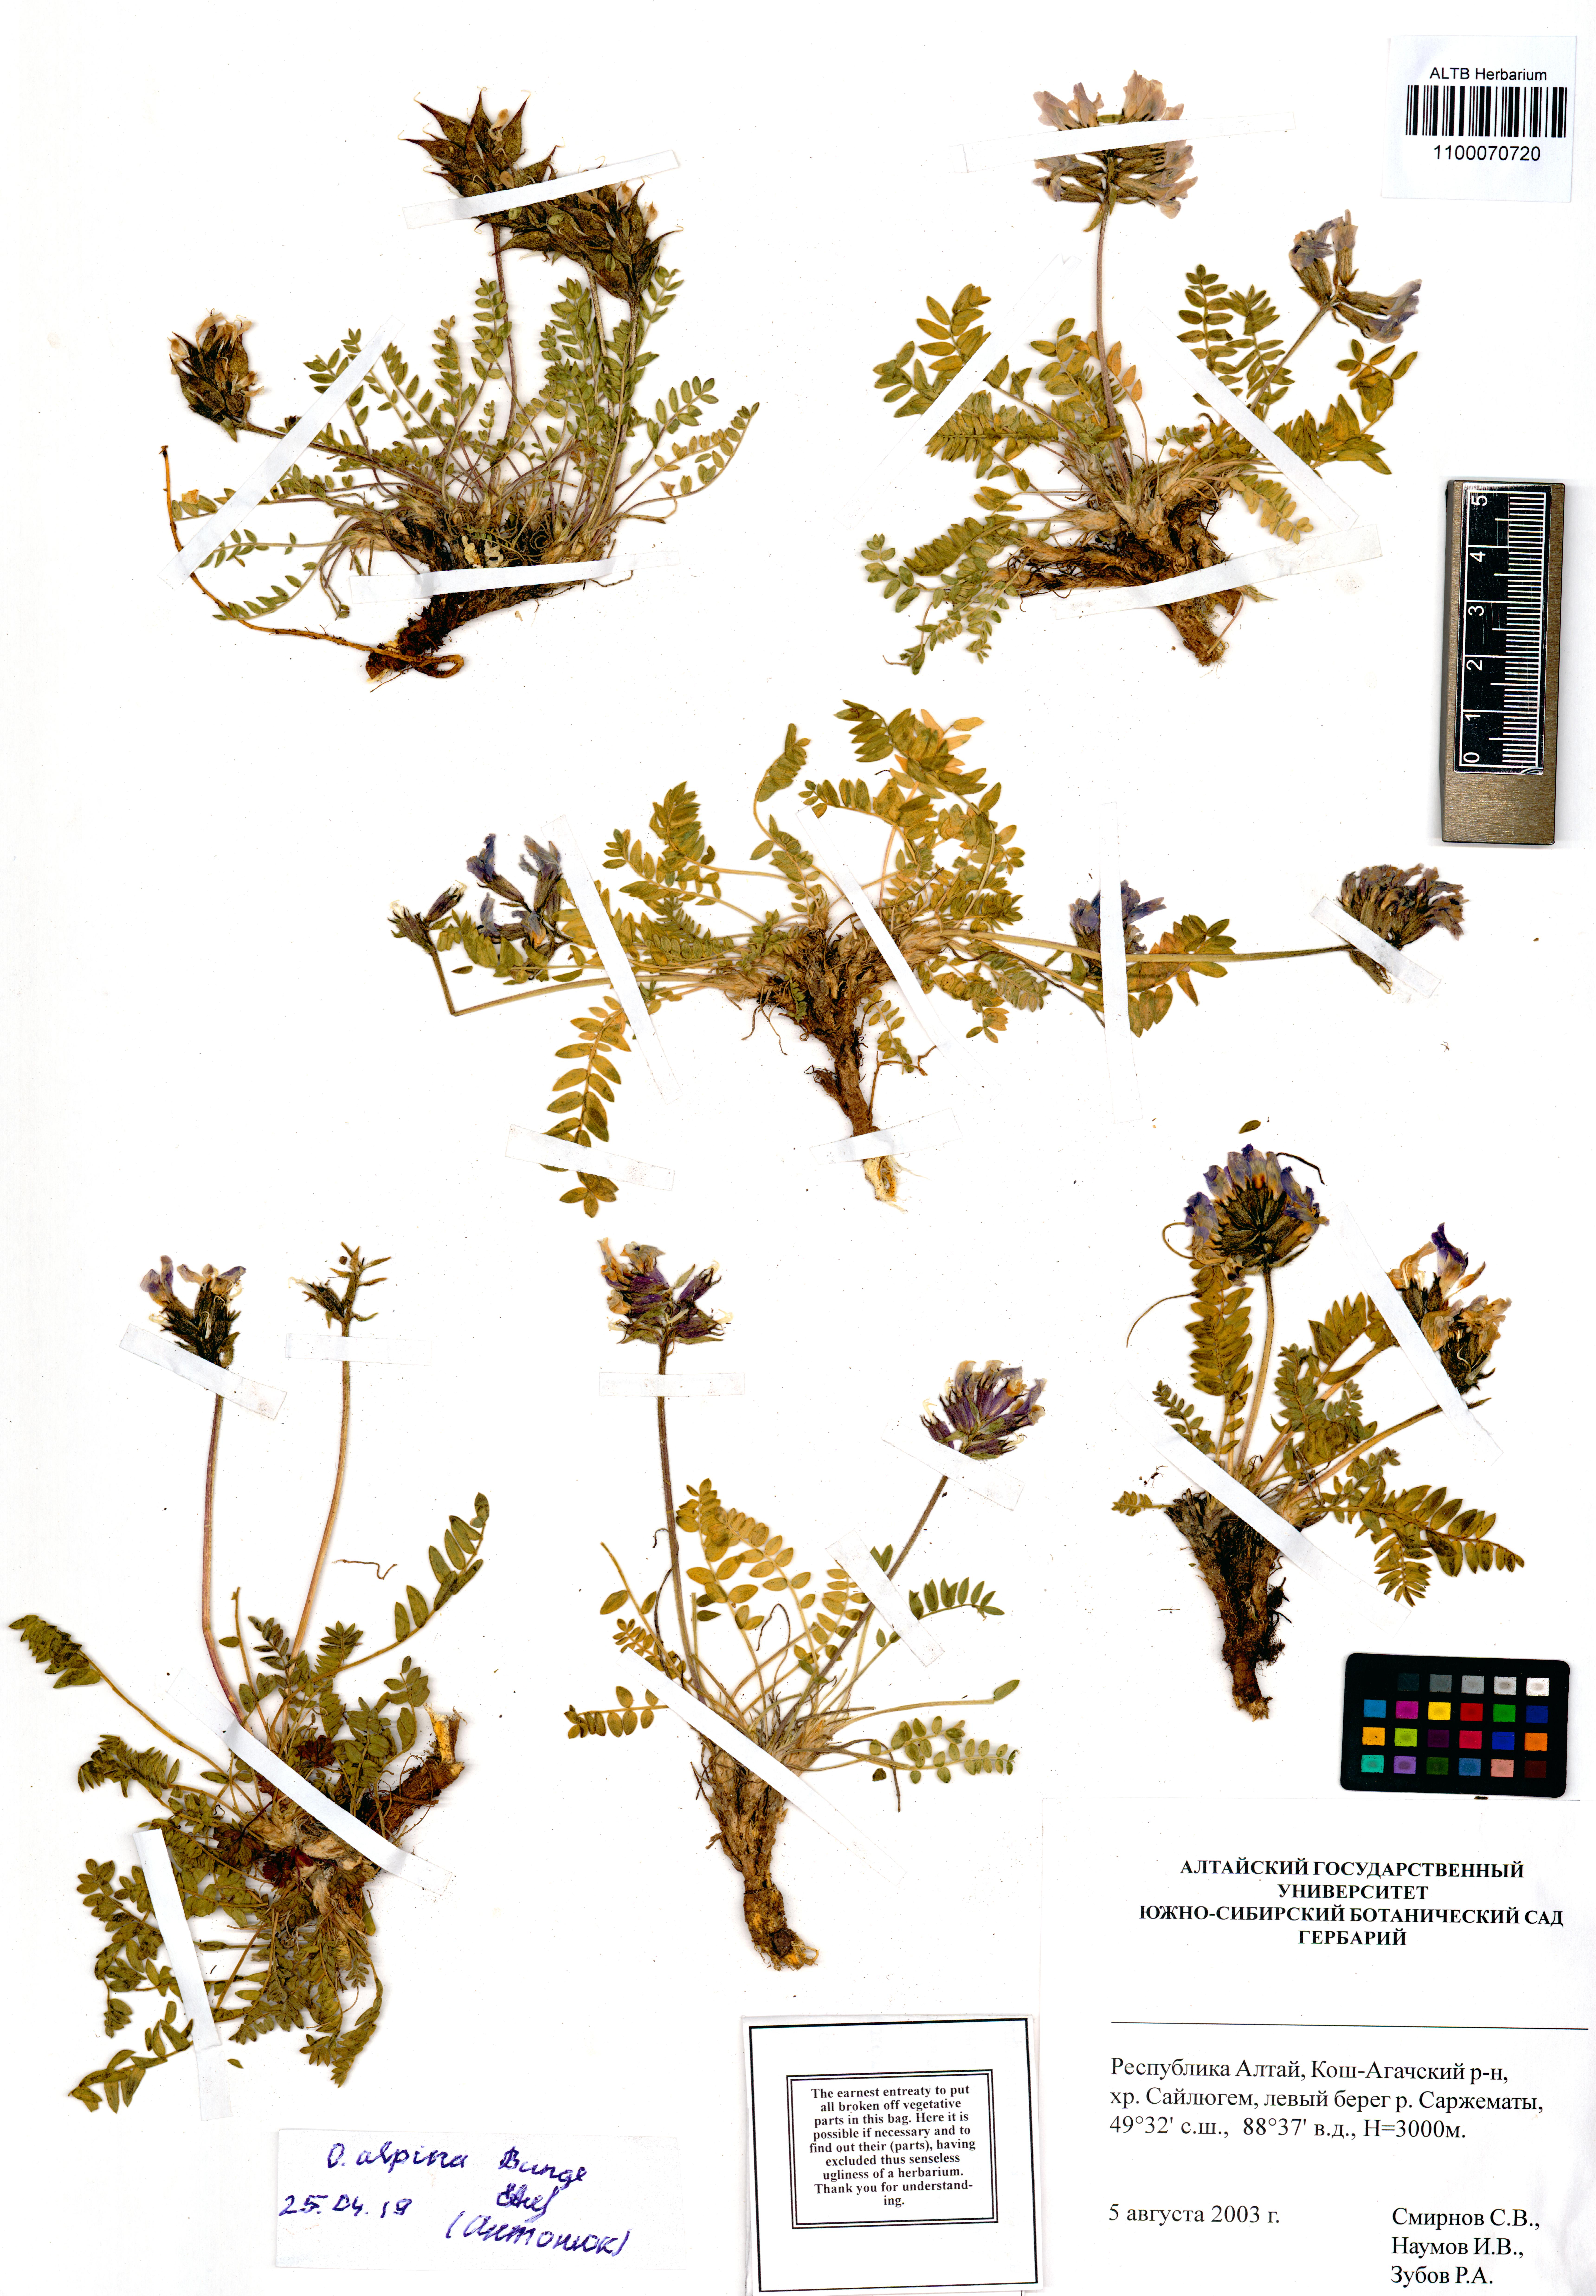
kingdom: Plantae
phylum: Tracheophyta
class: Magnoliopsida
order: Fabales
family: Fabaceae
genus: Oxytropis
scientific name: Oxytropis alpina
